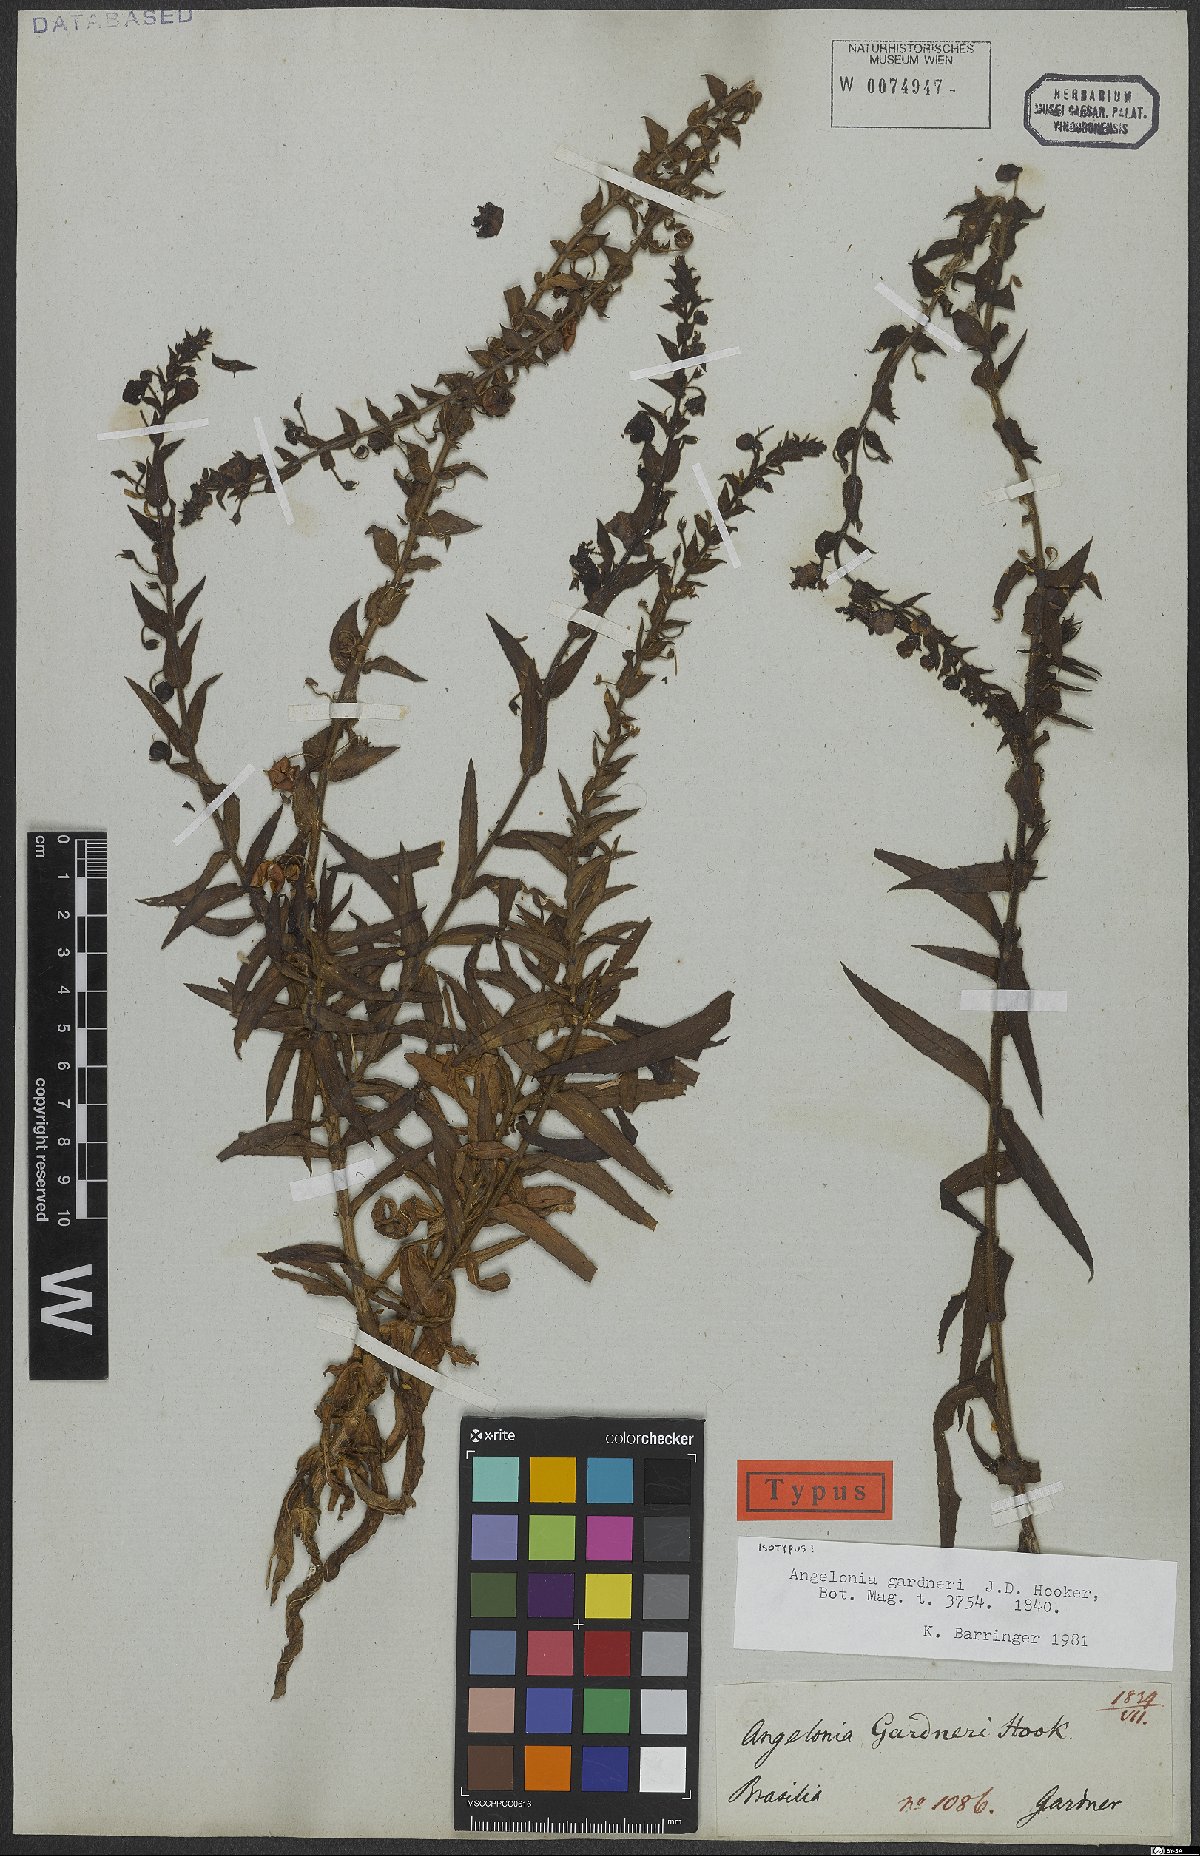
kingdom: Plantae
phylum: Tracheophyta
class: Magnoliopsida
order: Lamiales
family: Plantaginaceae
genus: Angelonia
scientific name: Angelonia gardneri
